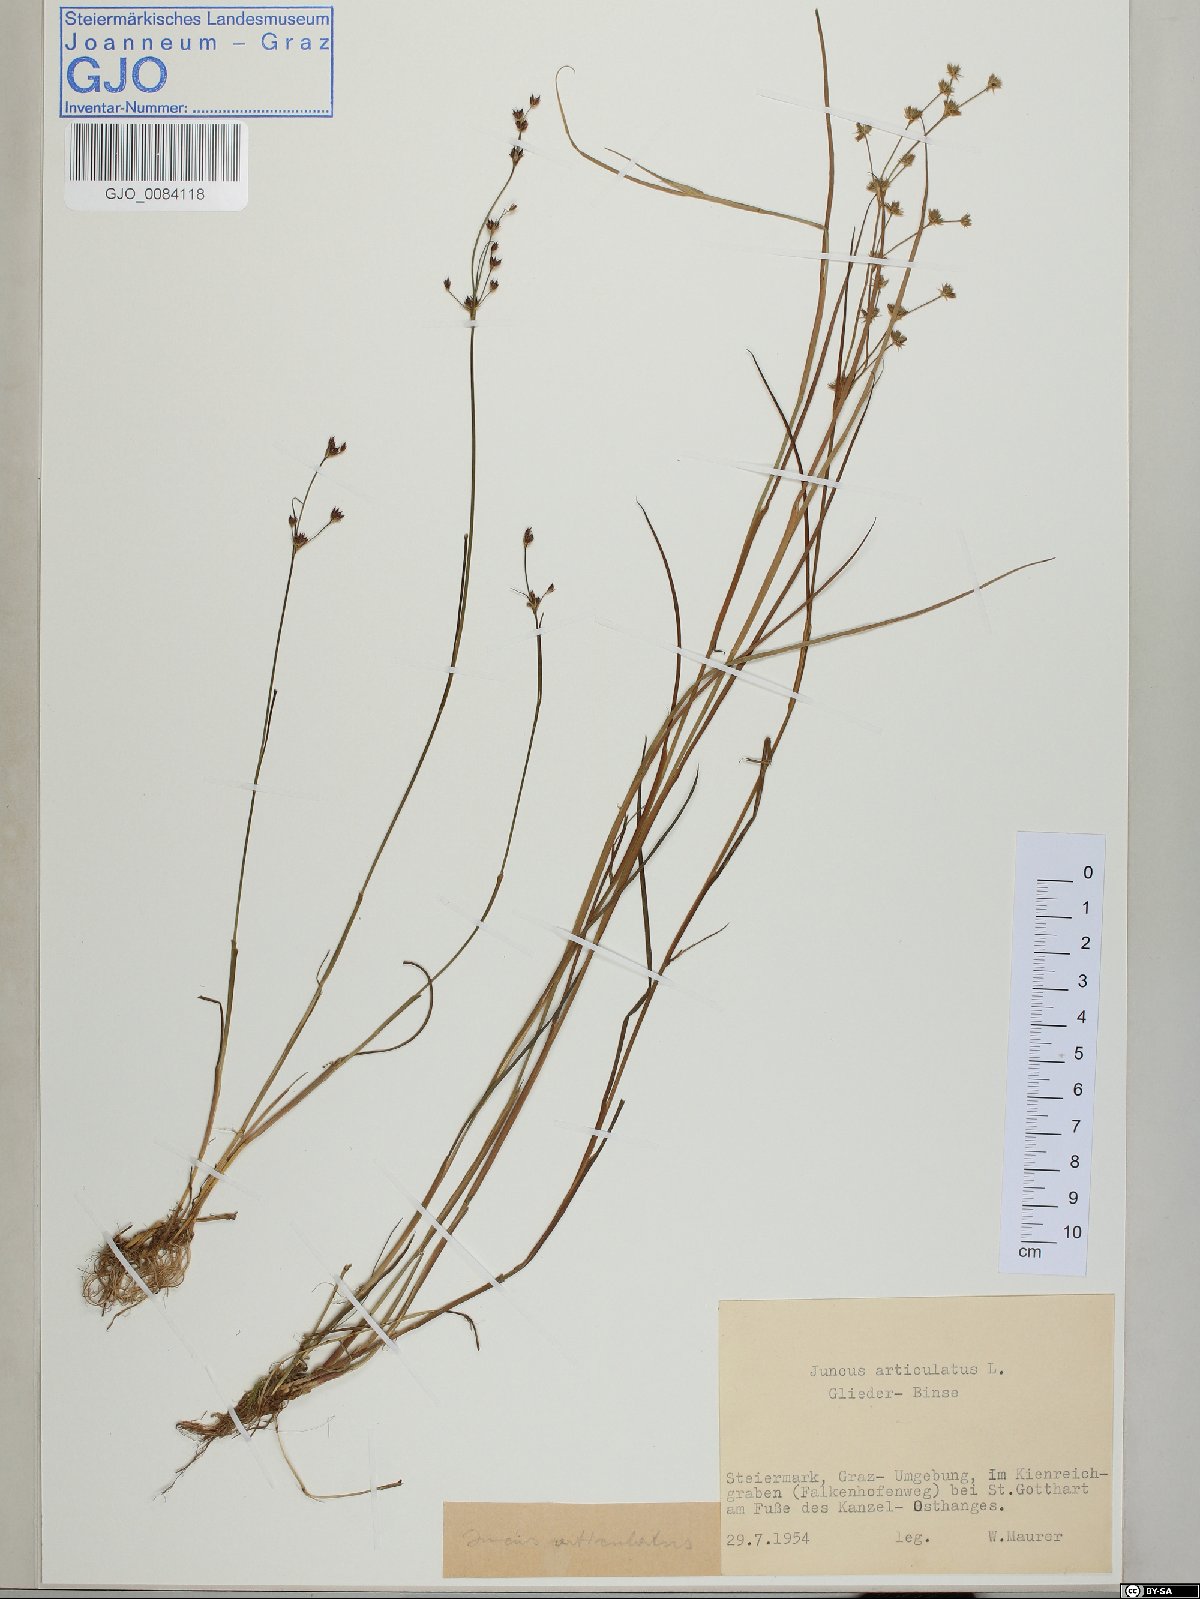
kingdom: Plantae
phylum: Tracheophyta
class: Liliopsida
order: Poales
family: Juncaceae
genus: Juncus
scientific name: Juncus articulatus
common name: Jointed rush
